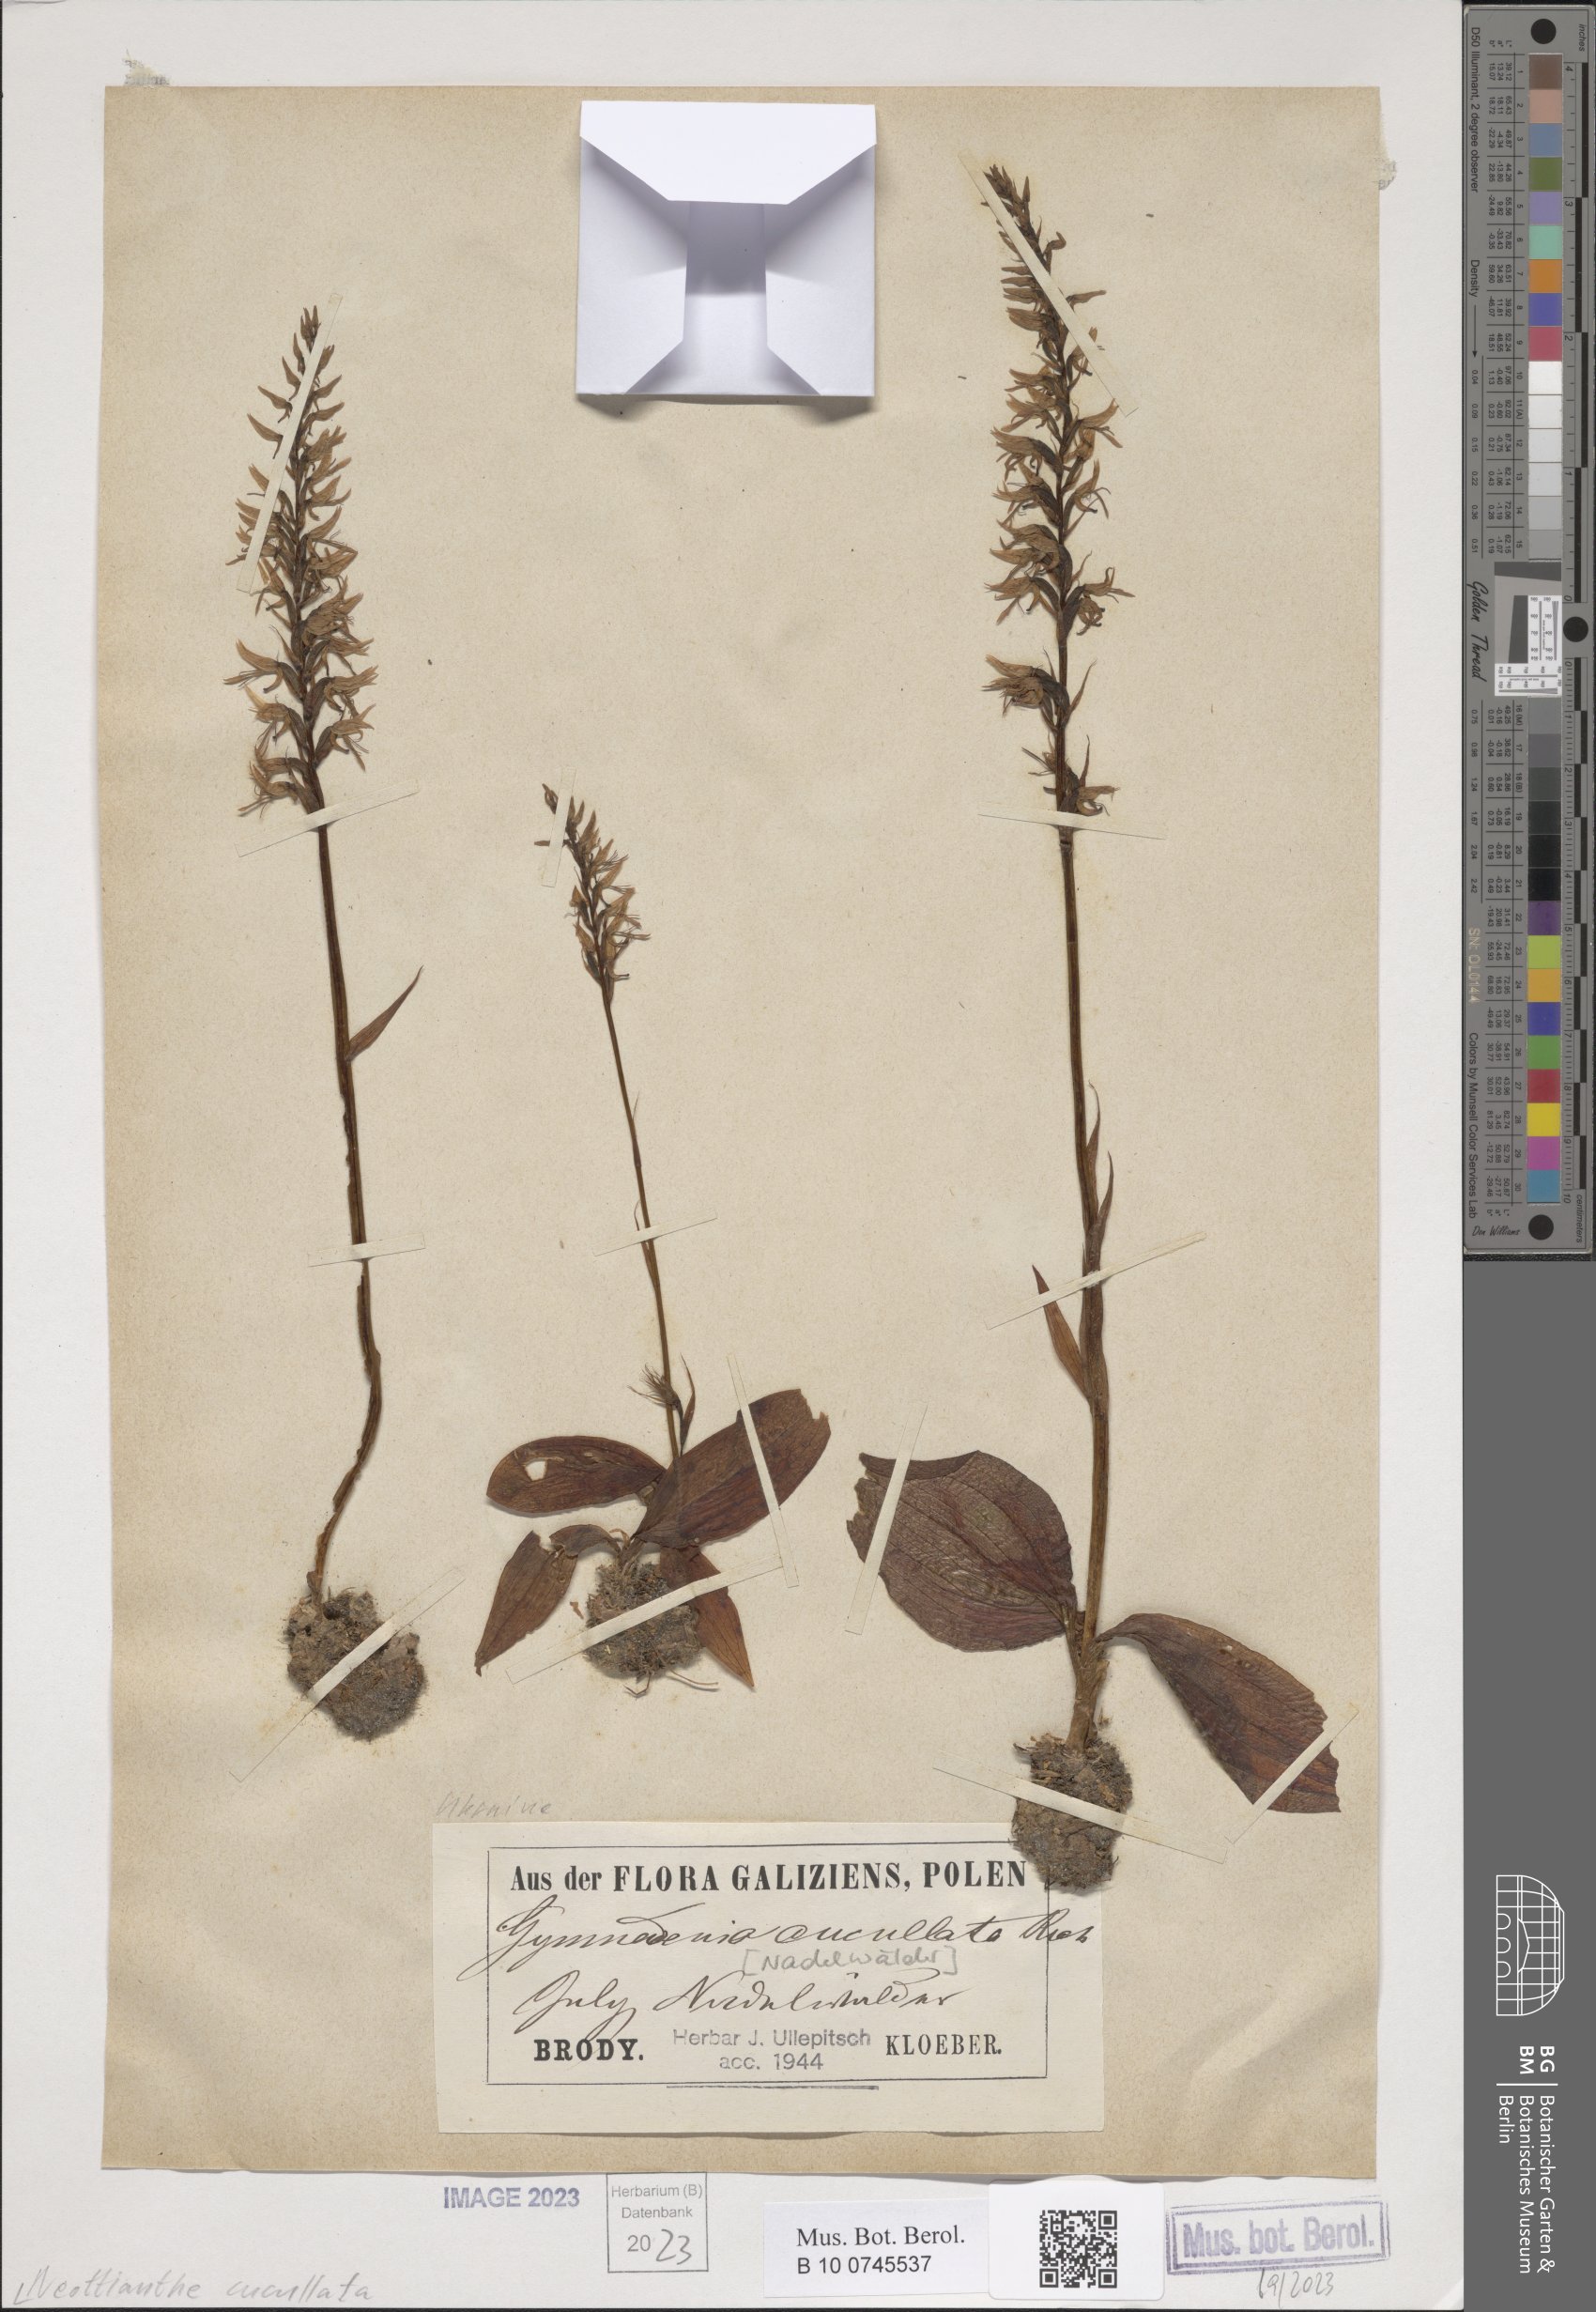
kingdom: Plantae
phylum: Tracheophyta
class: Liliopsida
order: Asparagales
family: Orchidaceae
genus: Hemipilia
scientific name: Hemipilia cucullata
